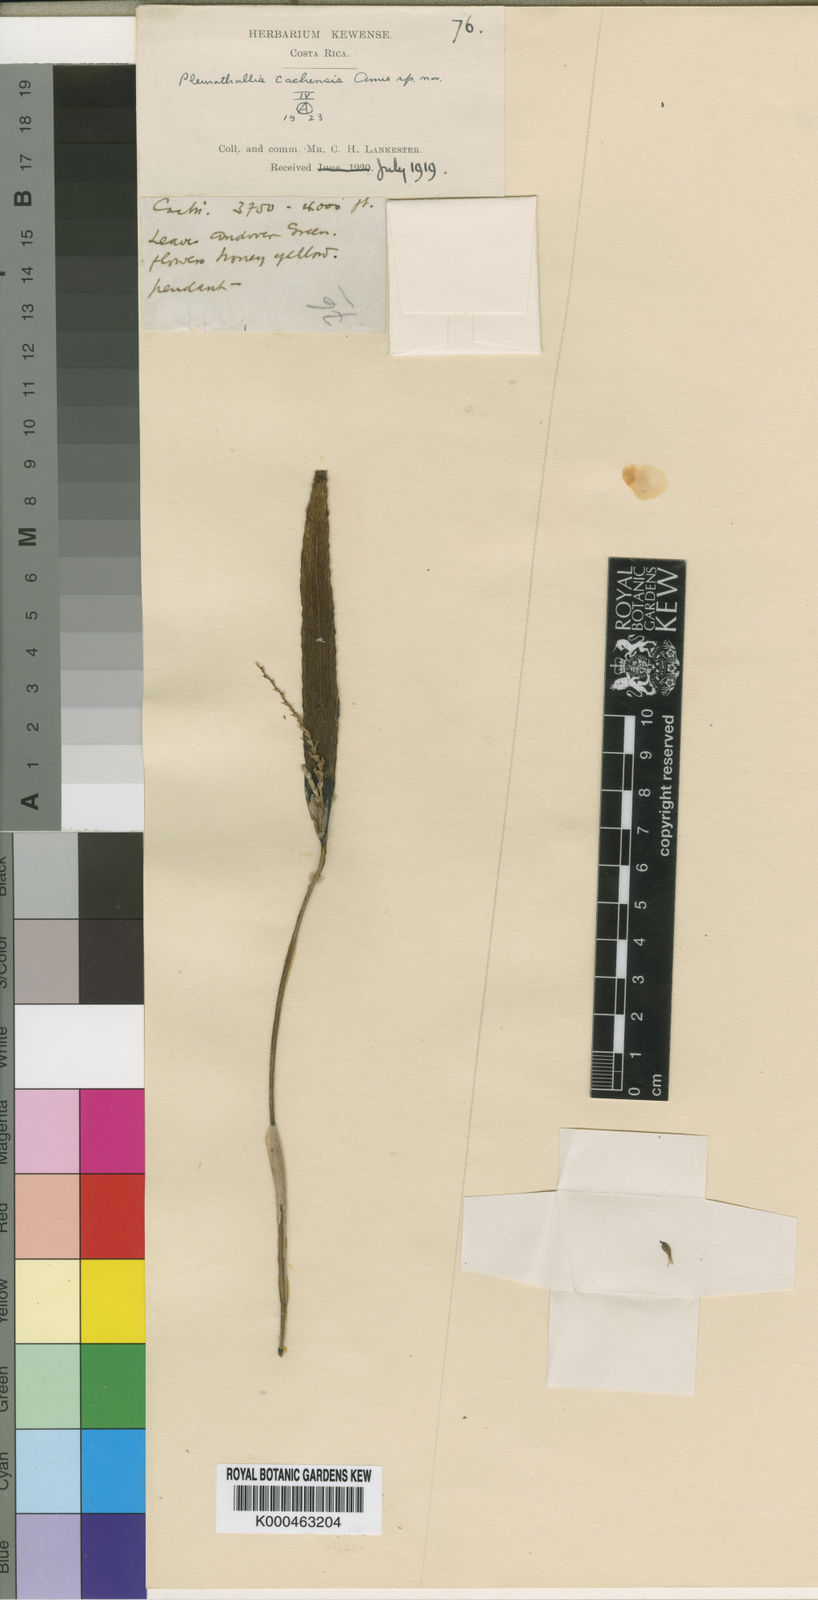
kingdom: Plantae
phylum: Tracheophyta
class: Liliopsida
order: Asparagales
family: Orchidaceae
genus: Acianthera
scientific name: Acianthera cachensis
